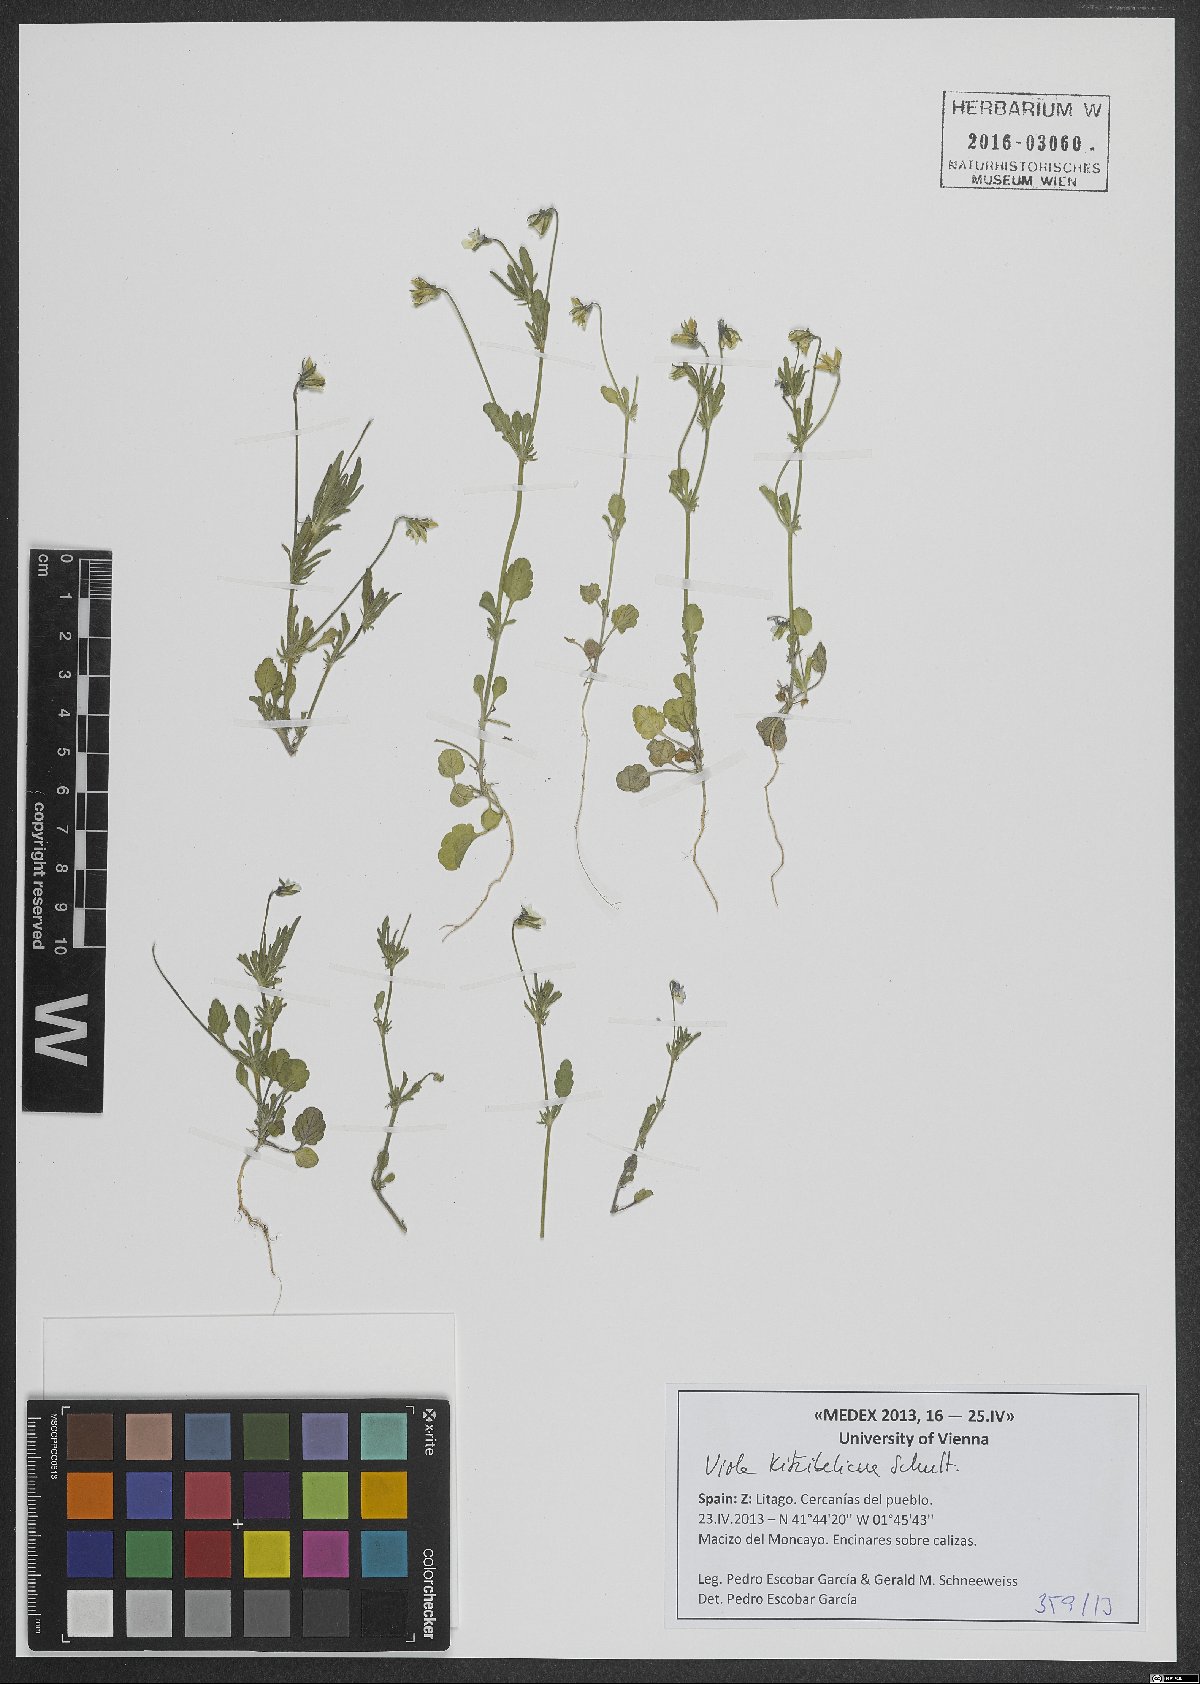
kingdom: Plantae
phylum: Tracheophyta
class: Magnoliopsida
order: Malpighiales
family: Violaceae
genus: Viola
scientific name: Viola kitaibeliana
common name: Dwarf pansy
